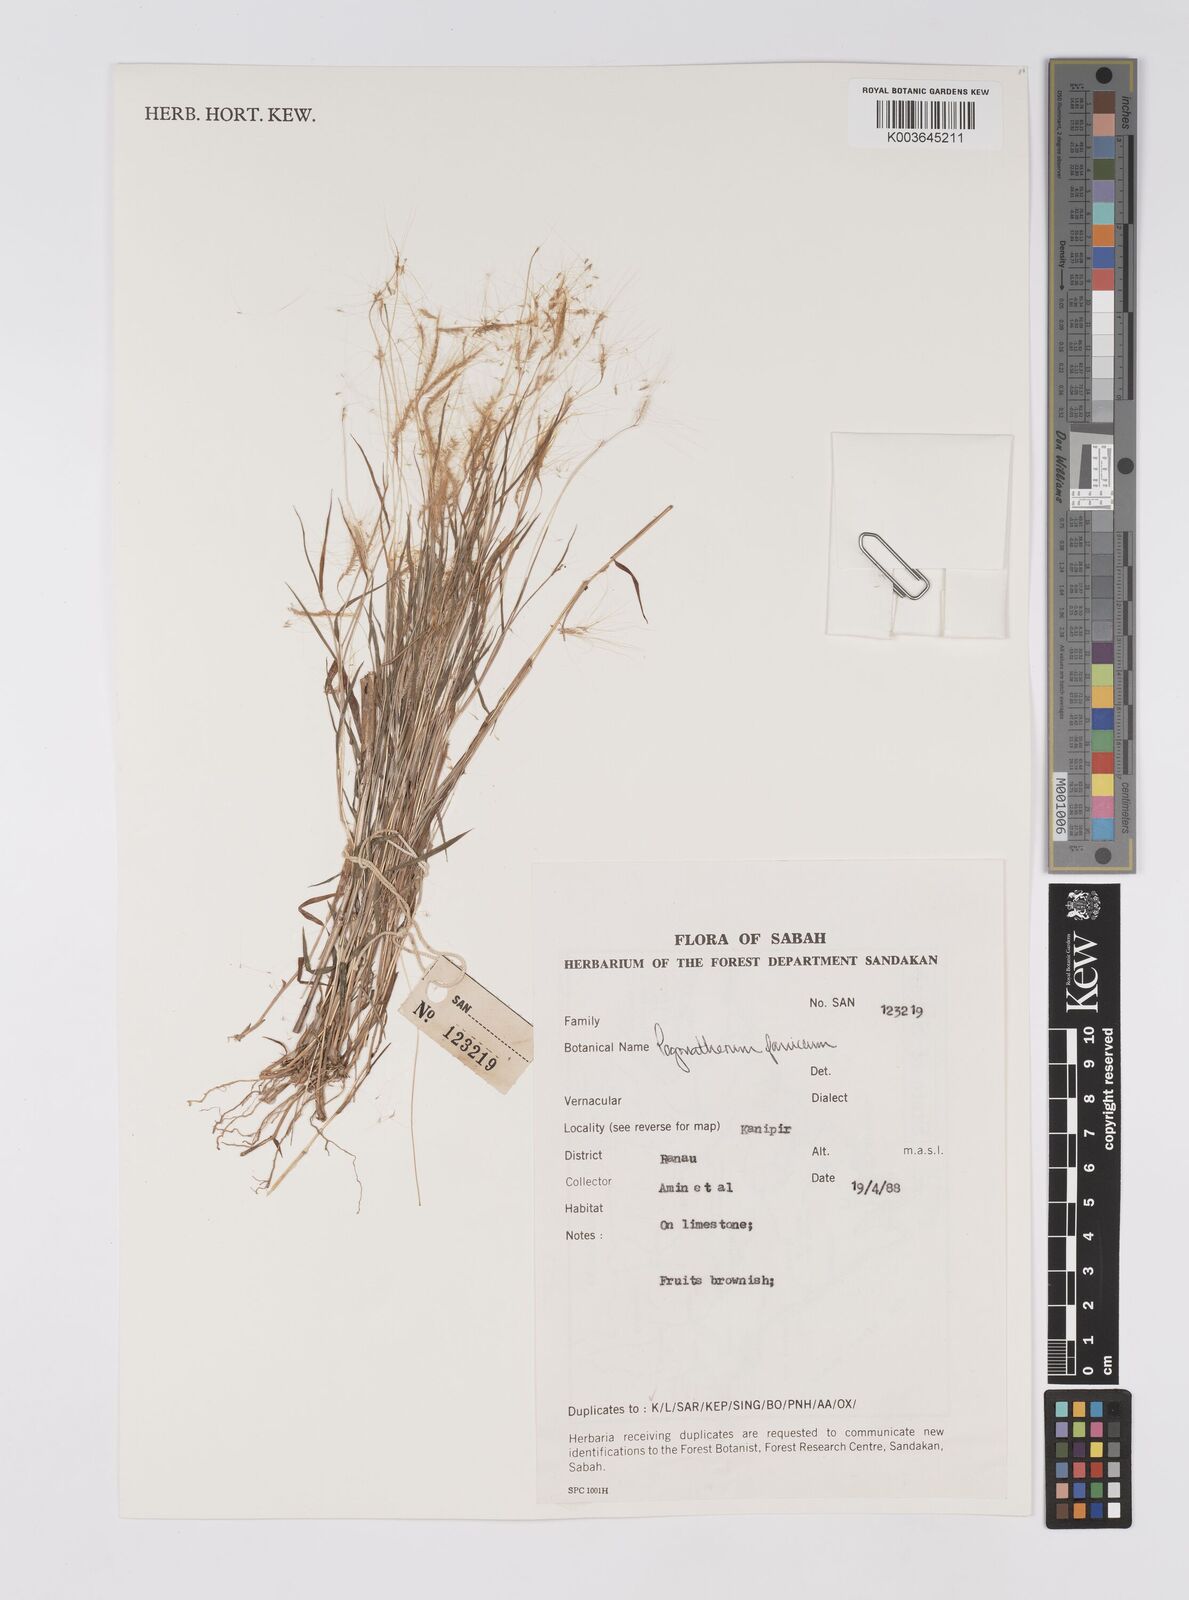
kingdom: Plantae
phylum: Tracheophyta
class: Liliopsida
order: Poales
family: Poaceae
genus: Pogonatherum
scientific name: Pogonatherum paniceum
